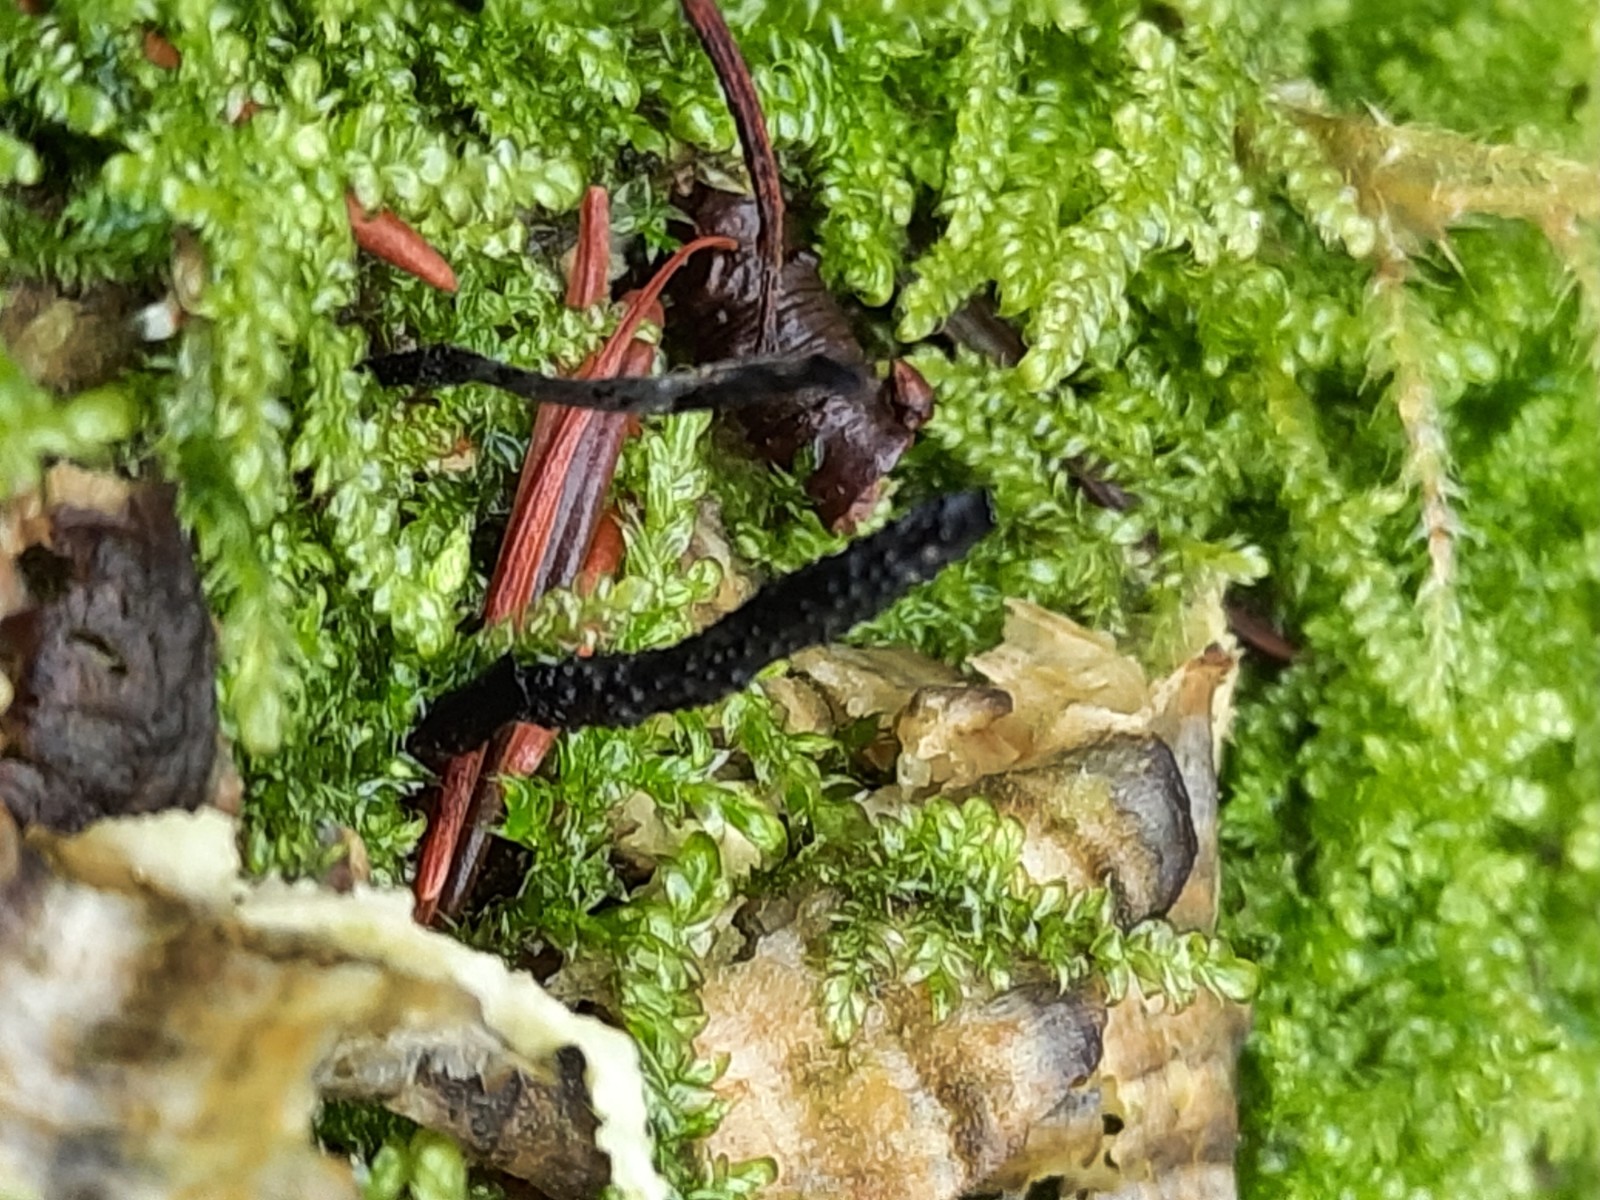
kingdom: Fungi
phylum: Ascomycota
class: Sordariomycetes
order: Xylariales
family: Xylariaceae
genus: Xylaria
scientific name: Xylaria hypoxylon
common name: grenet stødsvamp
